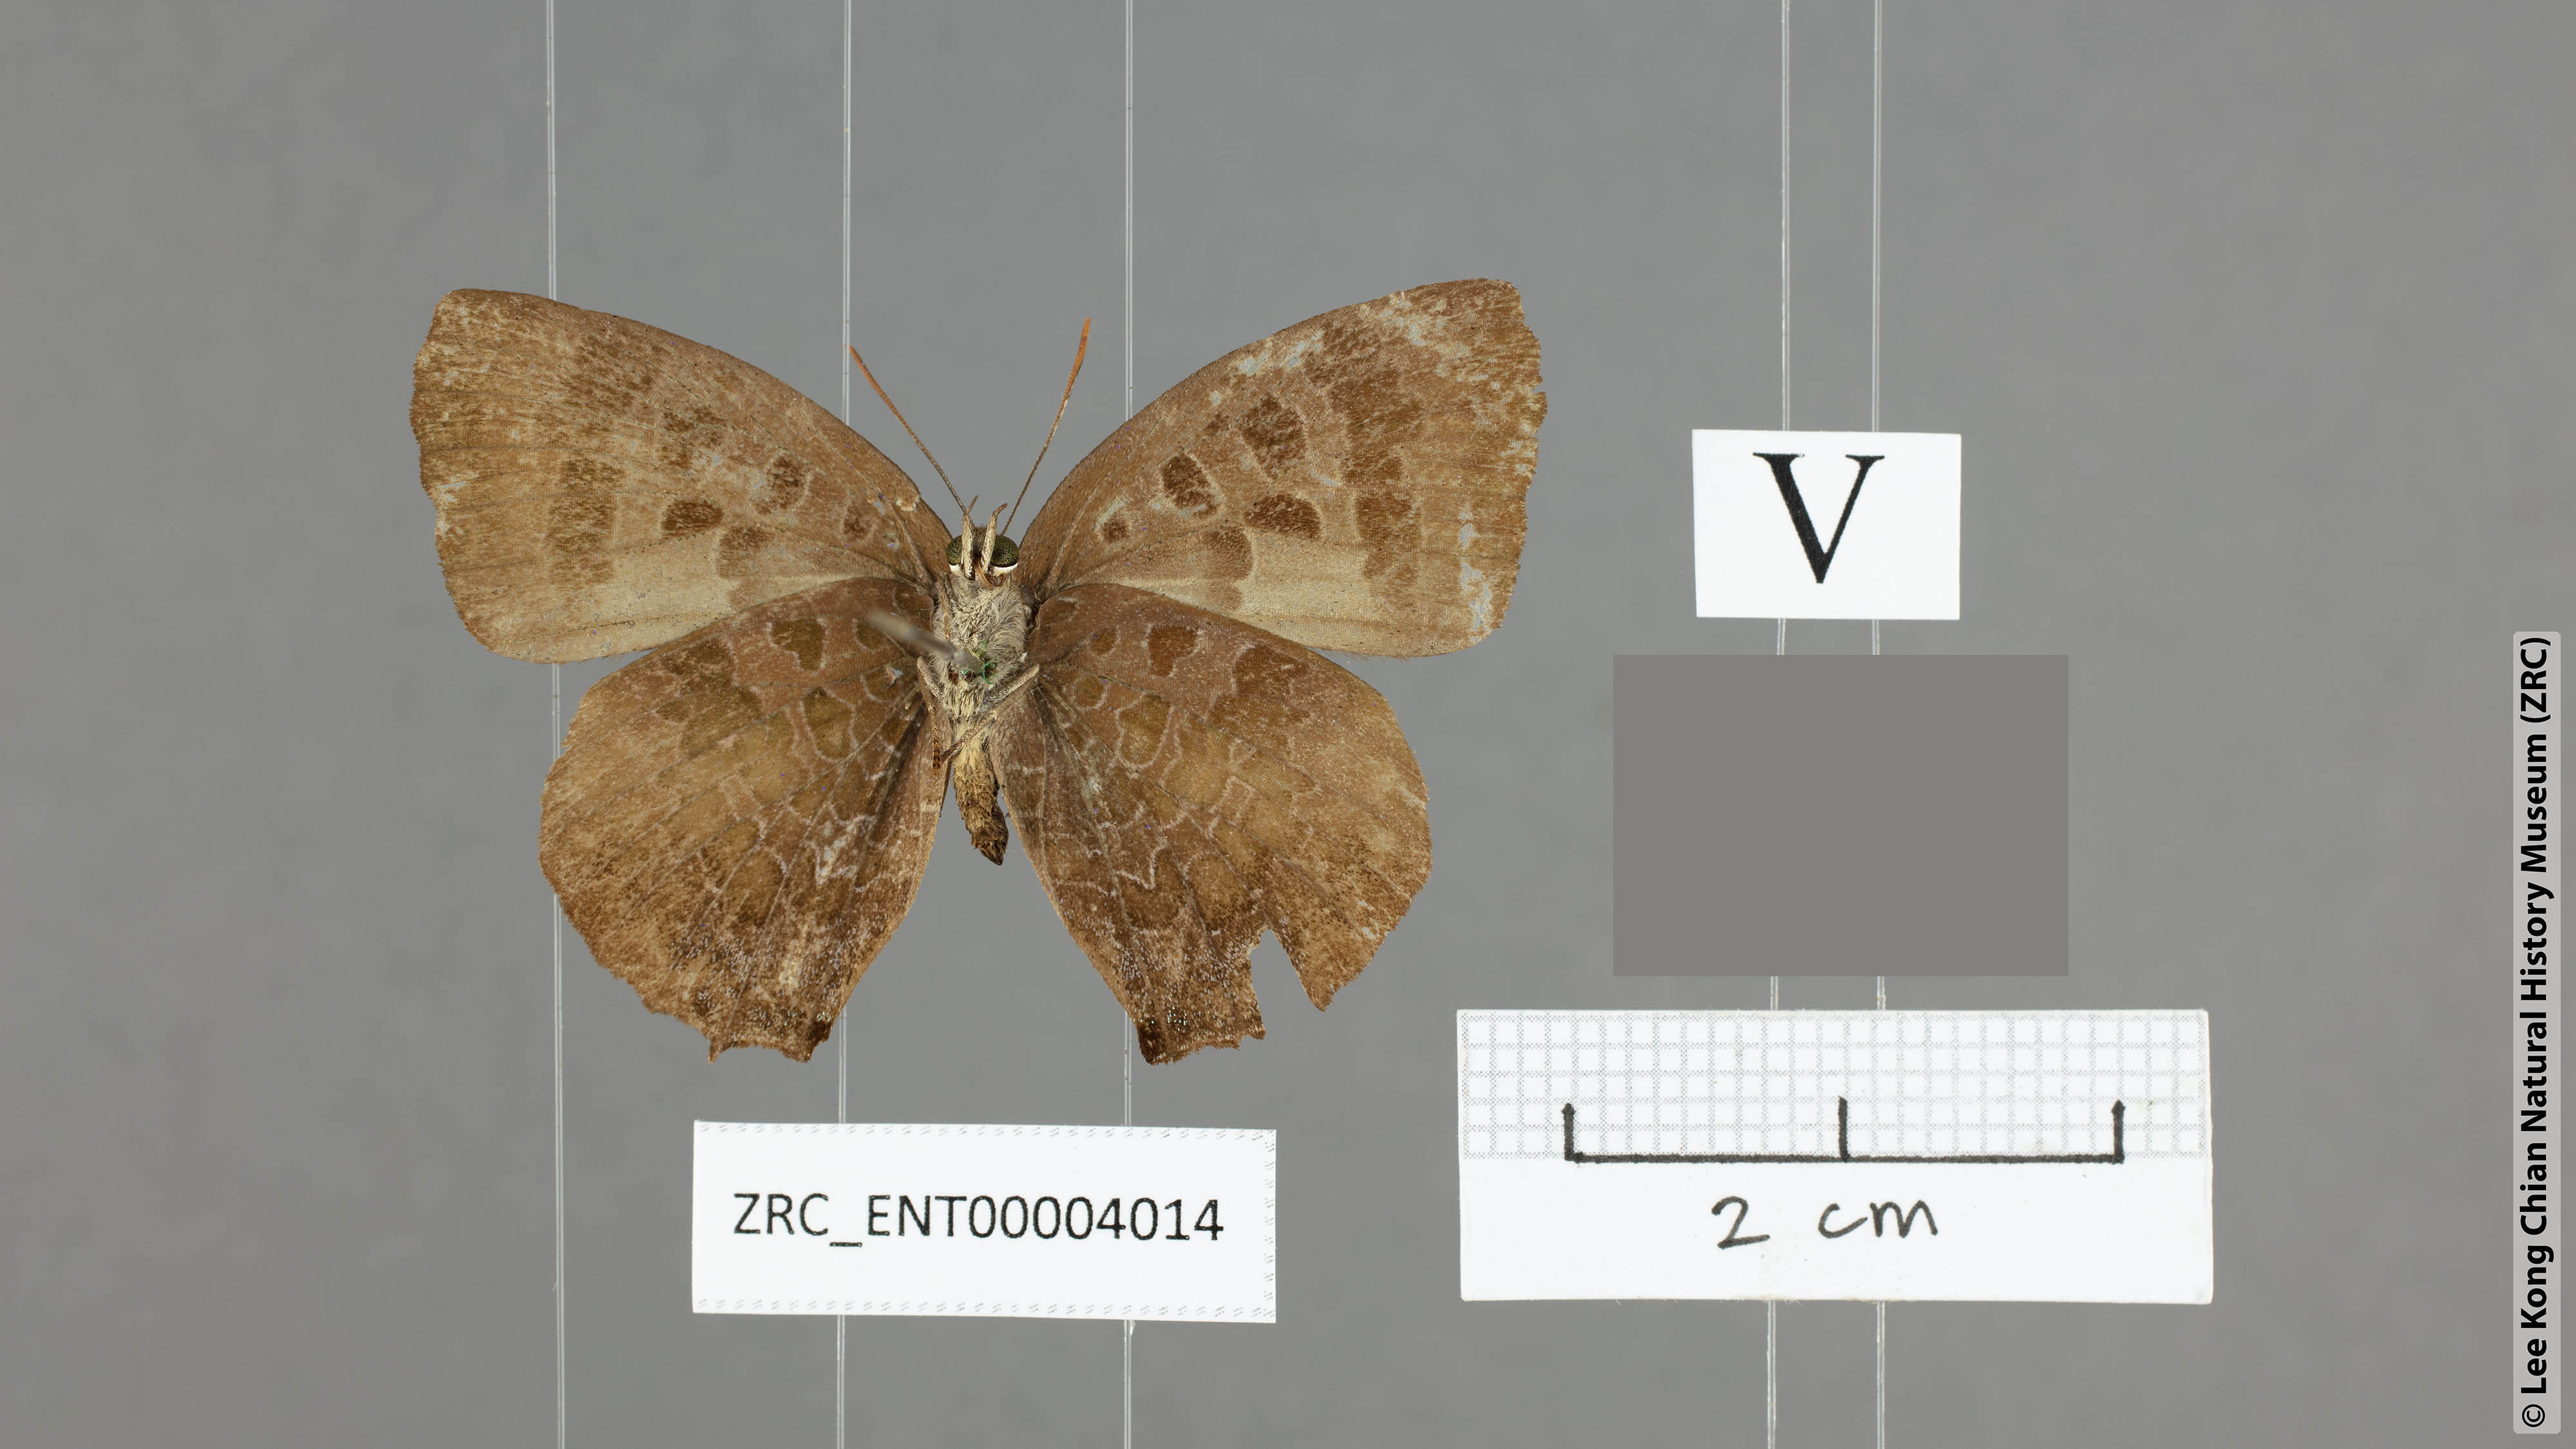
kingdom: Animalia
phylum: Arthropoda
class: Insecta
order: Lepidoptera
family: Lycaenidae
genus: Arhopala
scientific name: Arhopala overdijkinki
